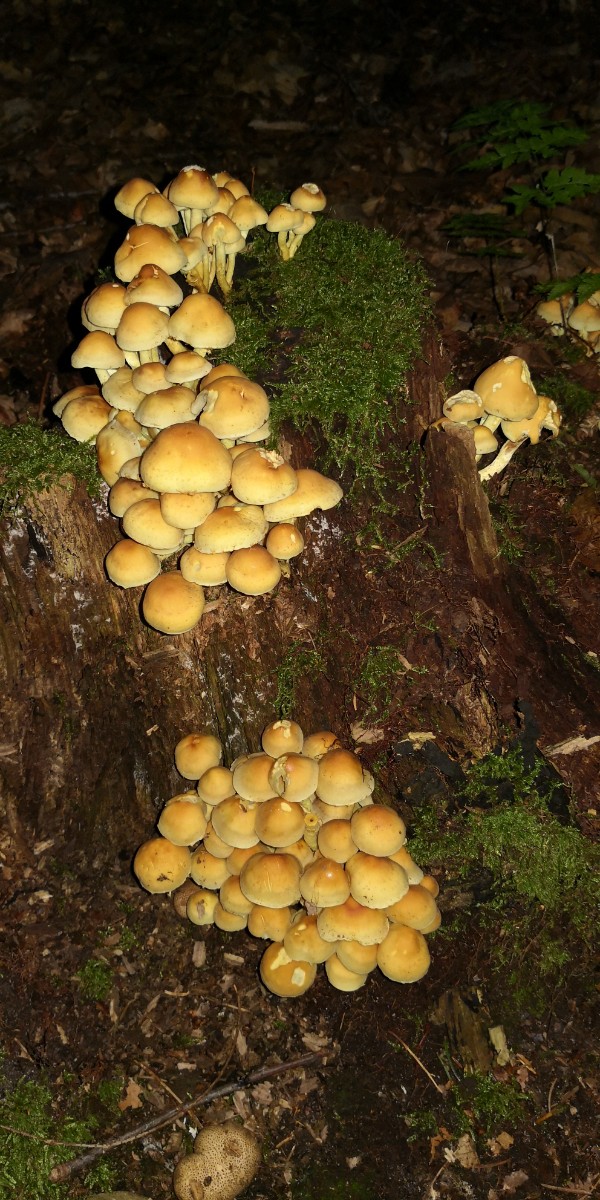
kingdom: Fungi
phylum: Basidiomycota
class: Agaricomycetes
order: Agaricales
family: Strophariaceae
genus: Hypholoma
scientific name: Hypholoma fasciculare
